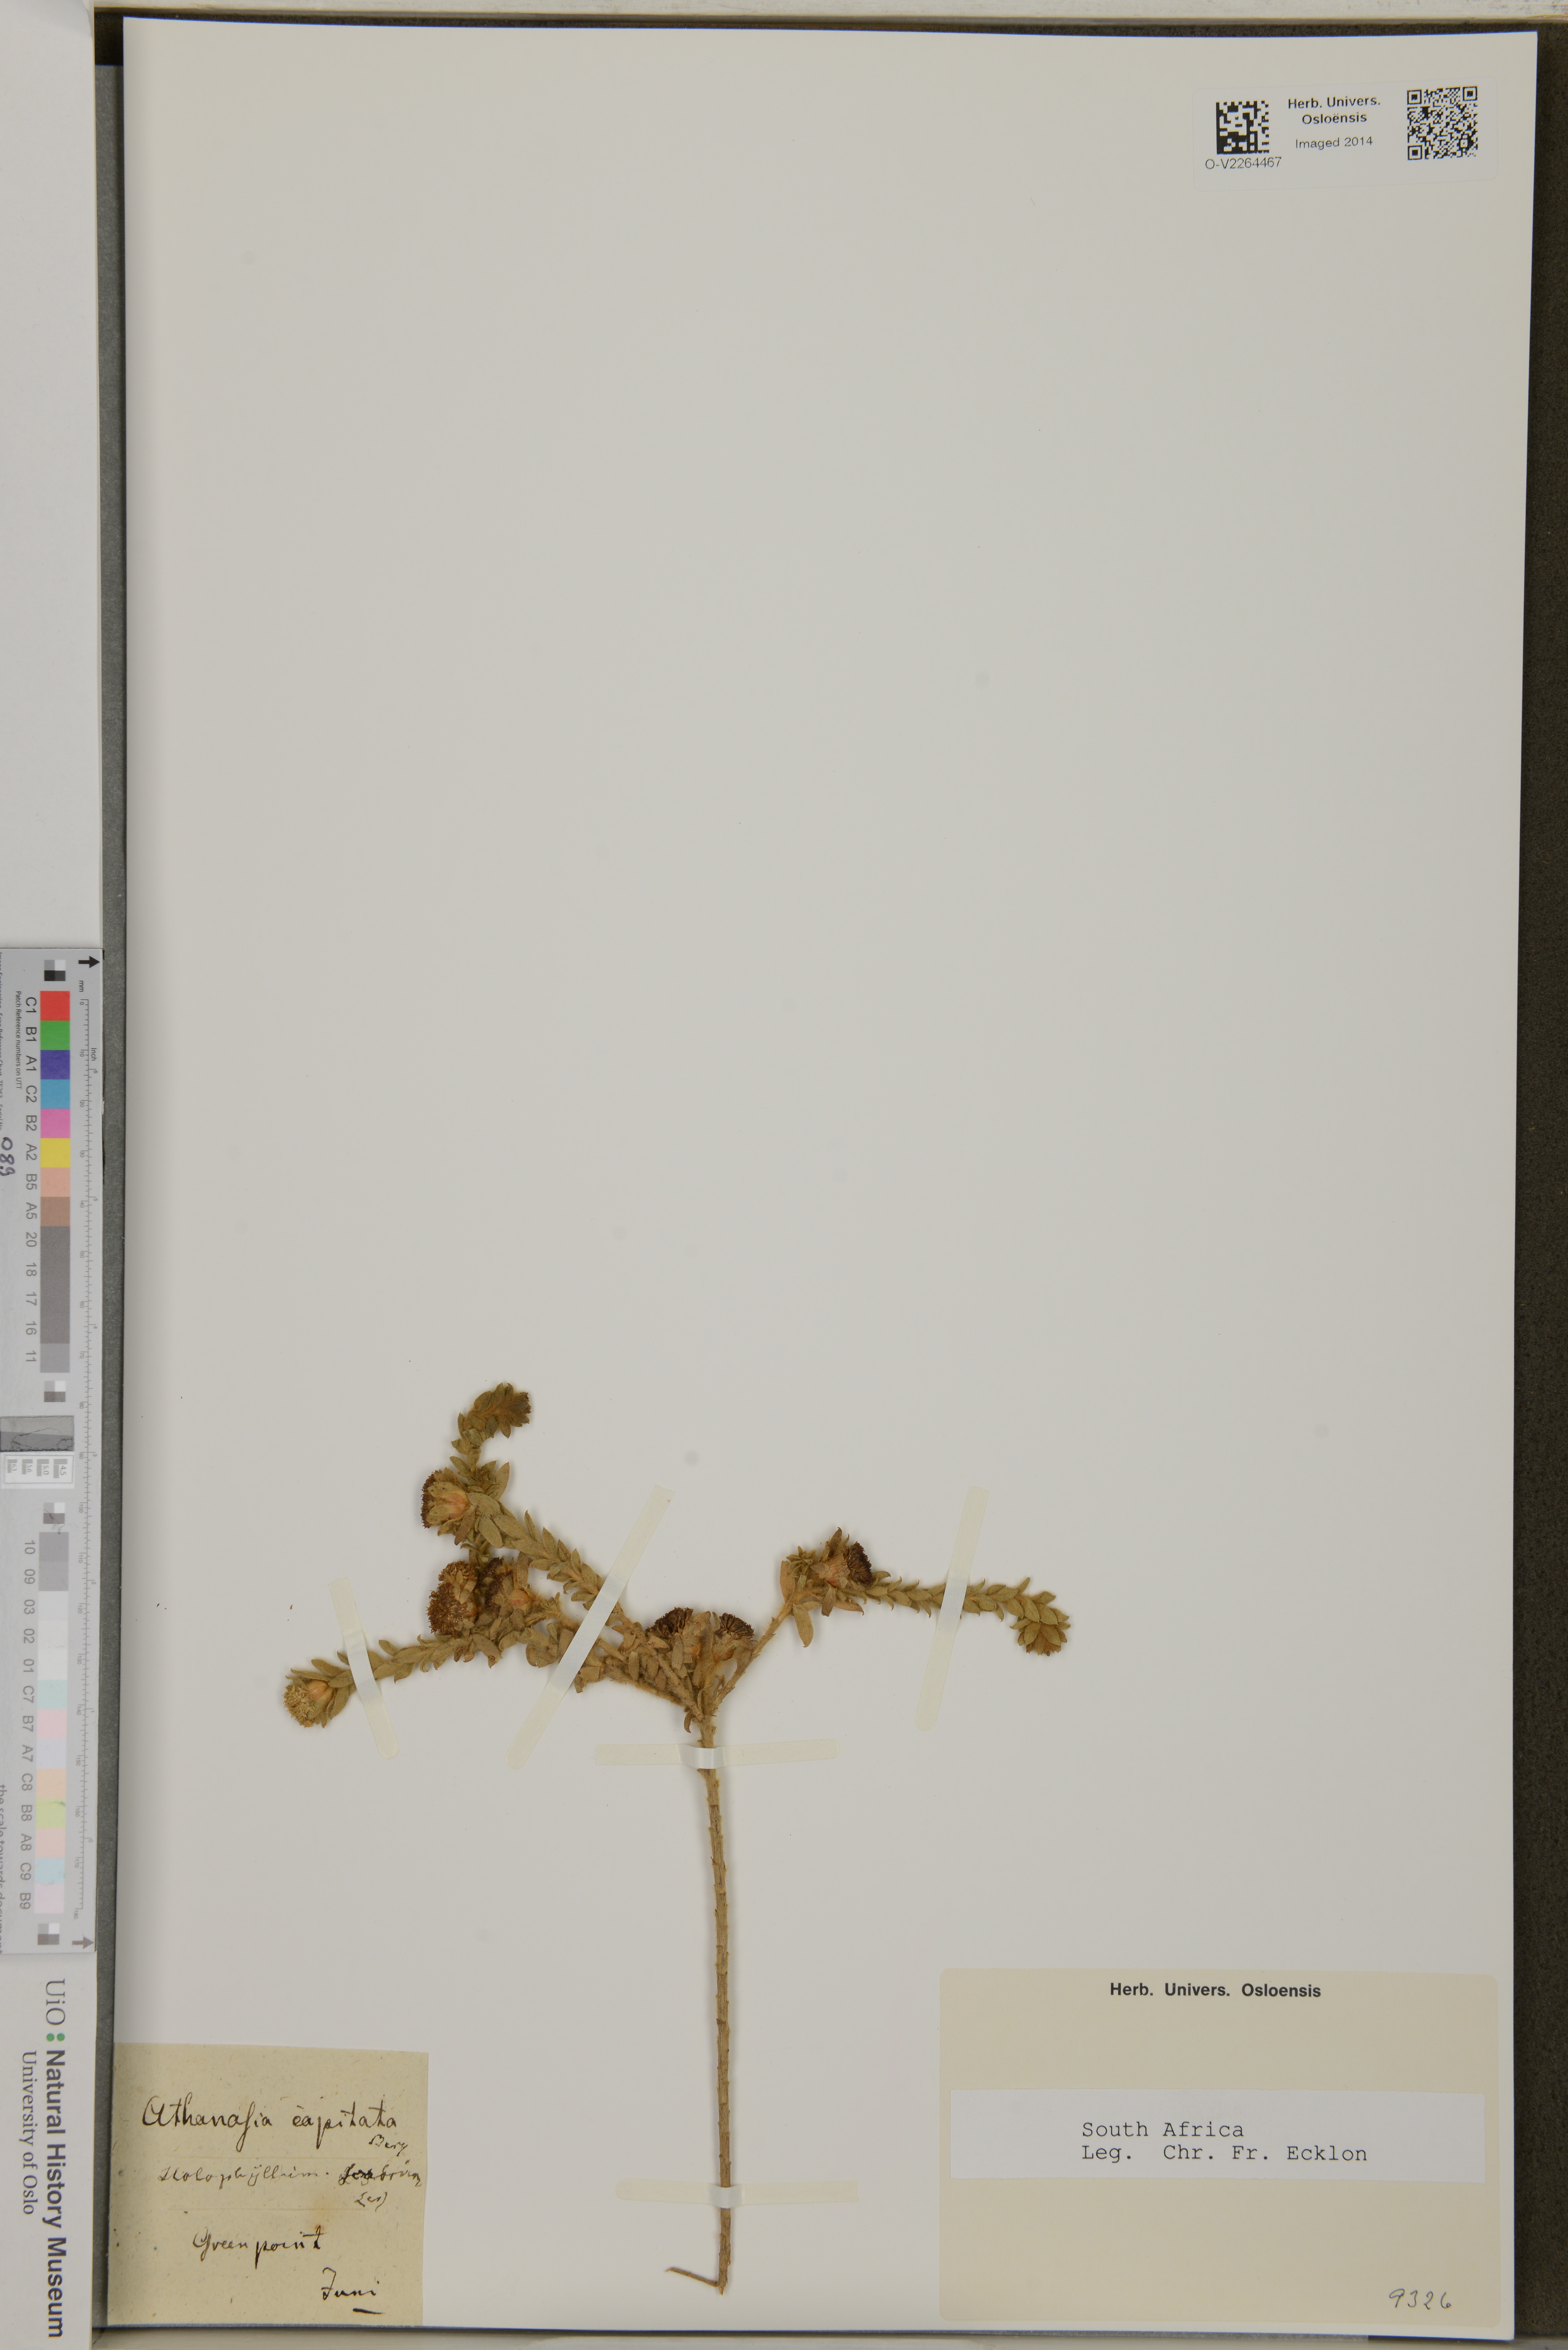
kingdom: Plantae
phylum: Tracheophyta
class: Magnoliopsida
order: Asterales
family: Asteraceae
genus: Athanasia
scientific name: Athanasia capitata
